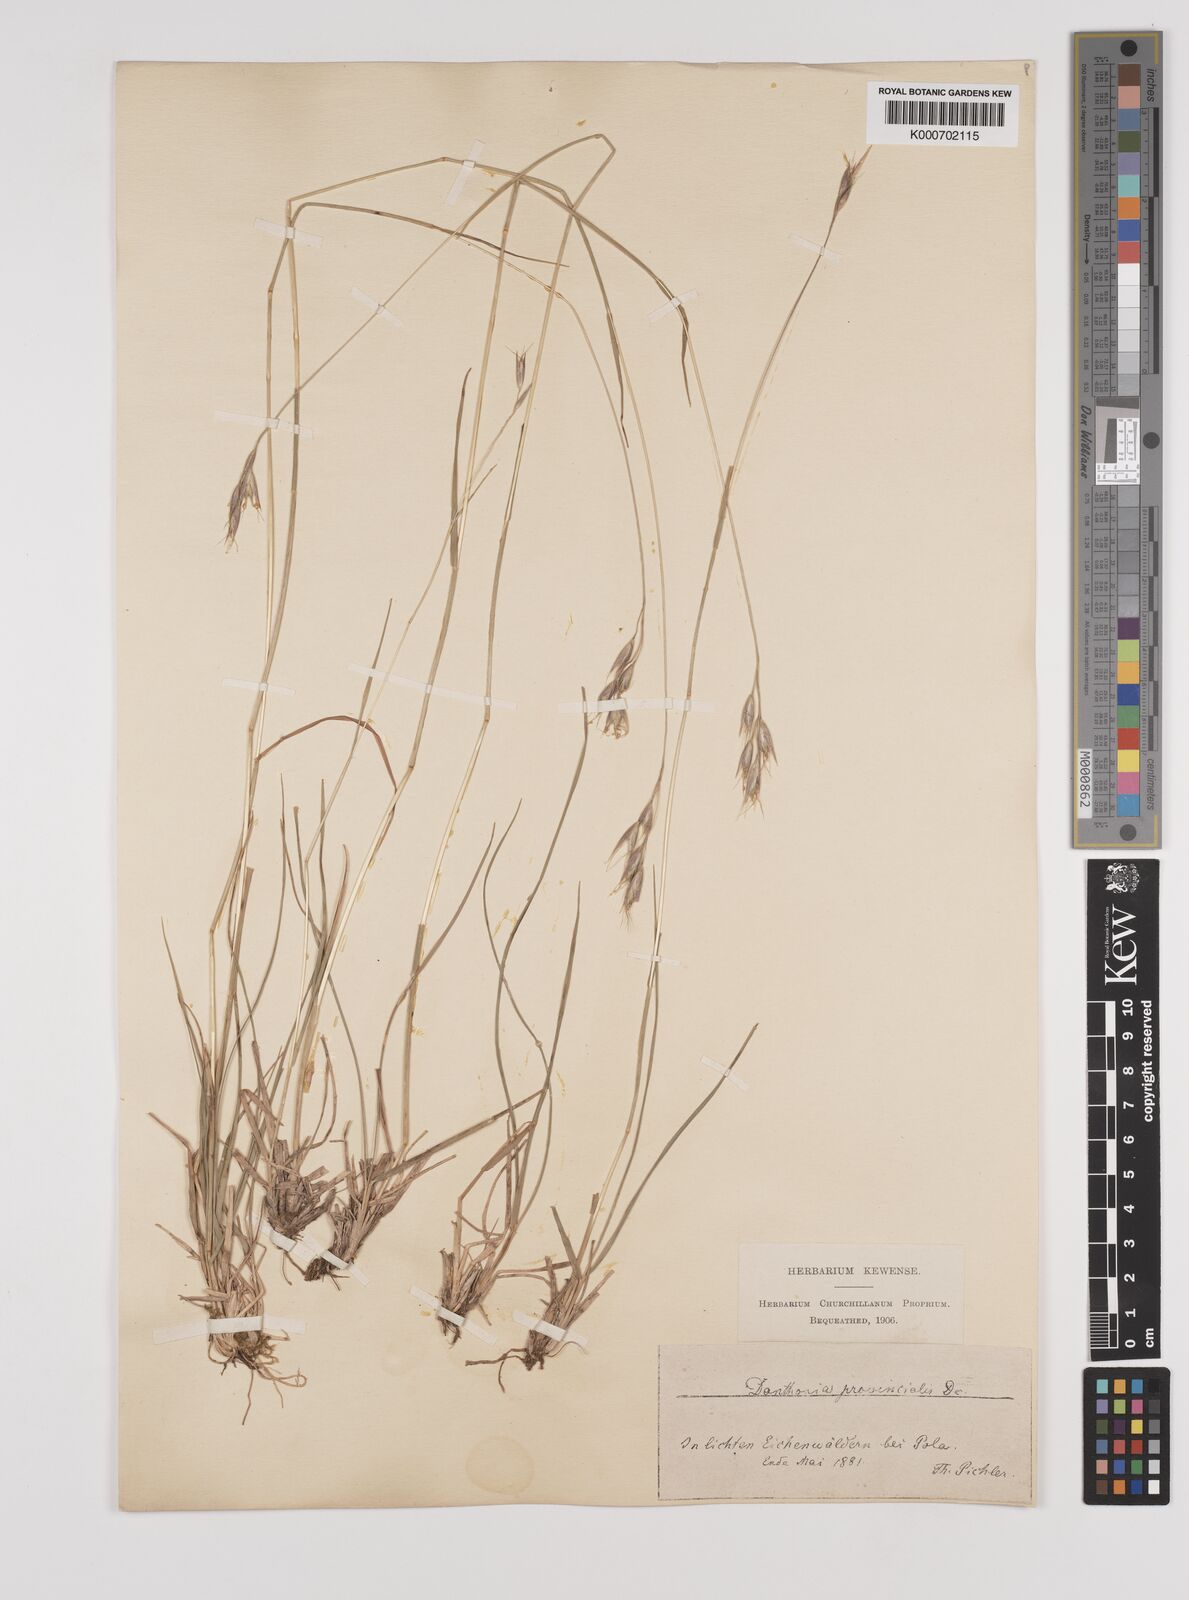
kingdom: Plantae
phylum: Tracheophyta
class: Liliopsida
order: Poales
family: Poaceae
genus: Danthonia
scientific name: Danthonia alpina
